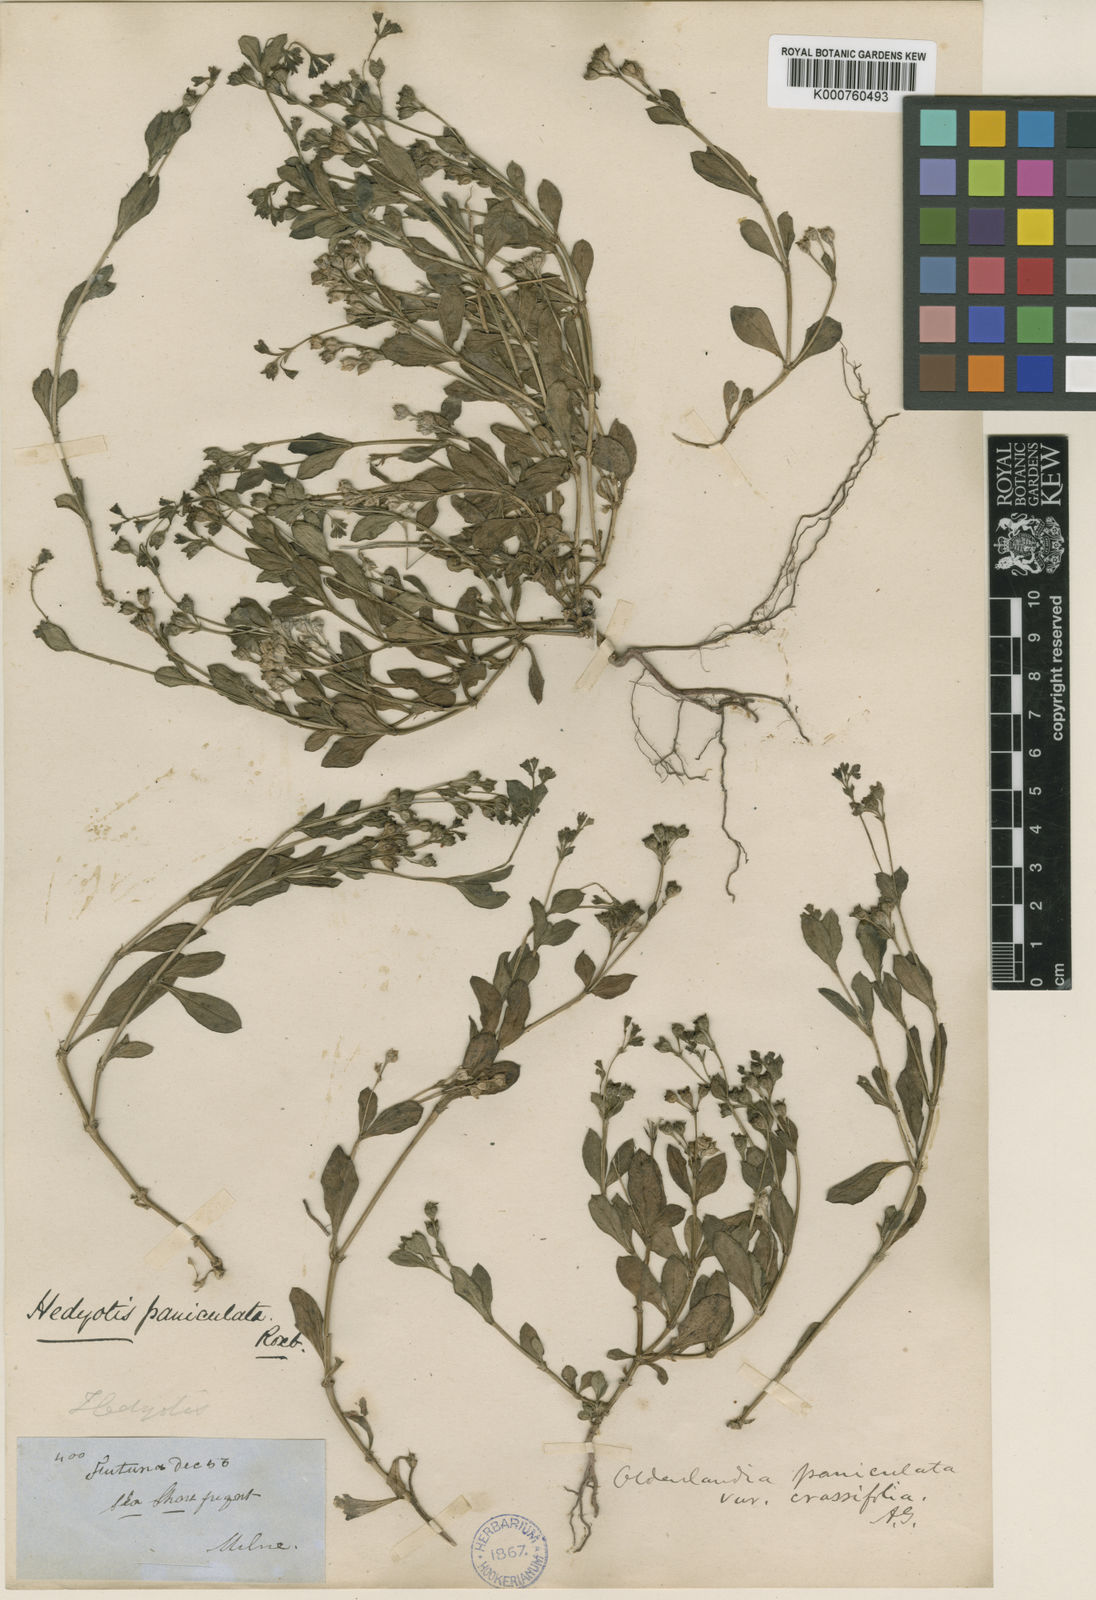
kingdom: Plantae
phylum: Tracheophyta
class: Magnoliopsida
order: Gentianales
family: Rubiaceae
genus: Leptopetalum
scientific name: Leptopetalum biflorum
